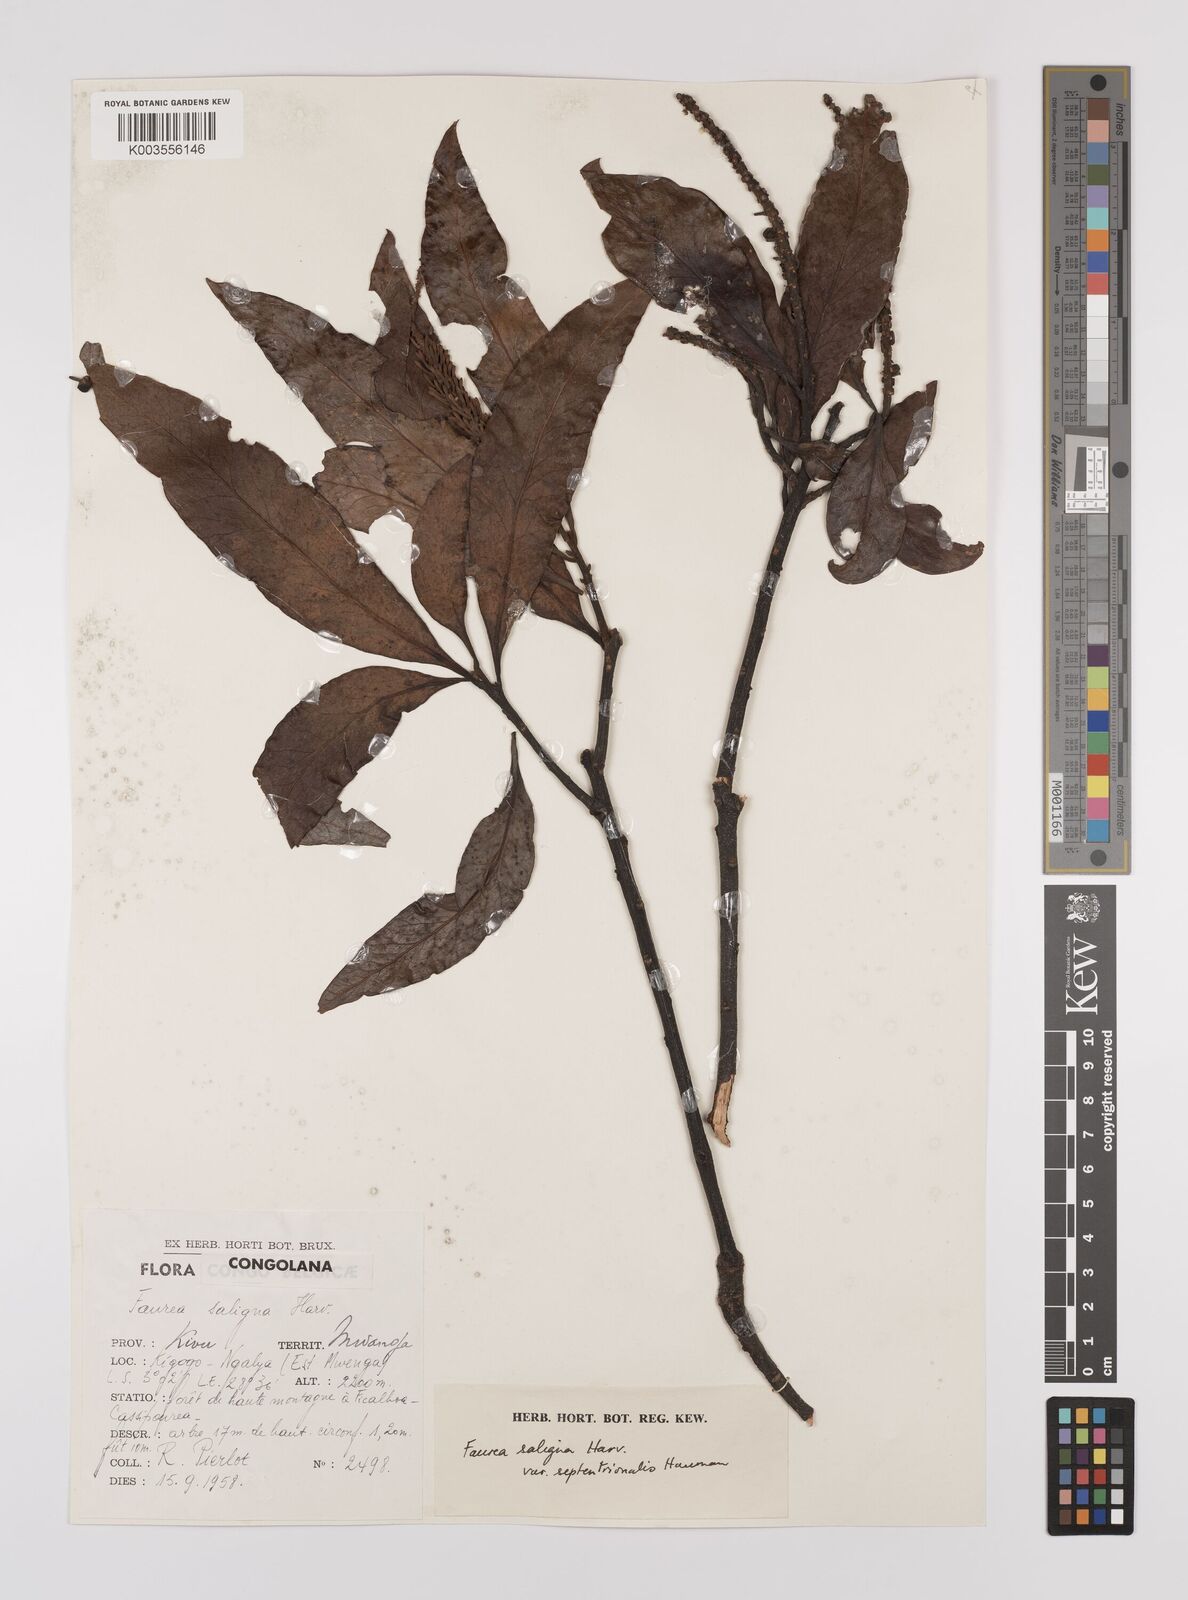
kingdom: Plantae
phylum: Tracheophyta
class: Magnoliopsida
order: Proteales
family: Proteaceae
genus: Faurea
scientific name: Faurea saligna
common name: African bean
